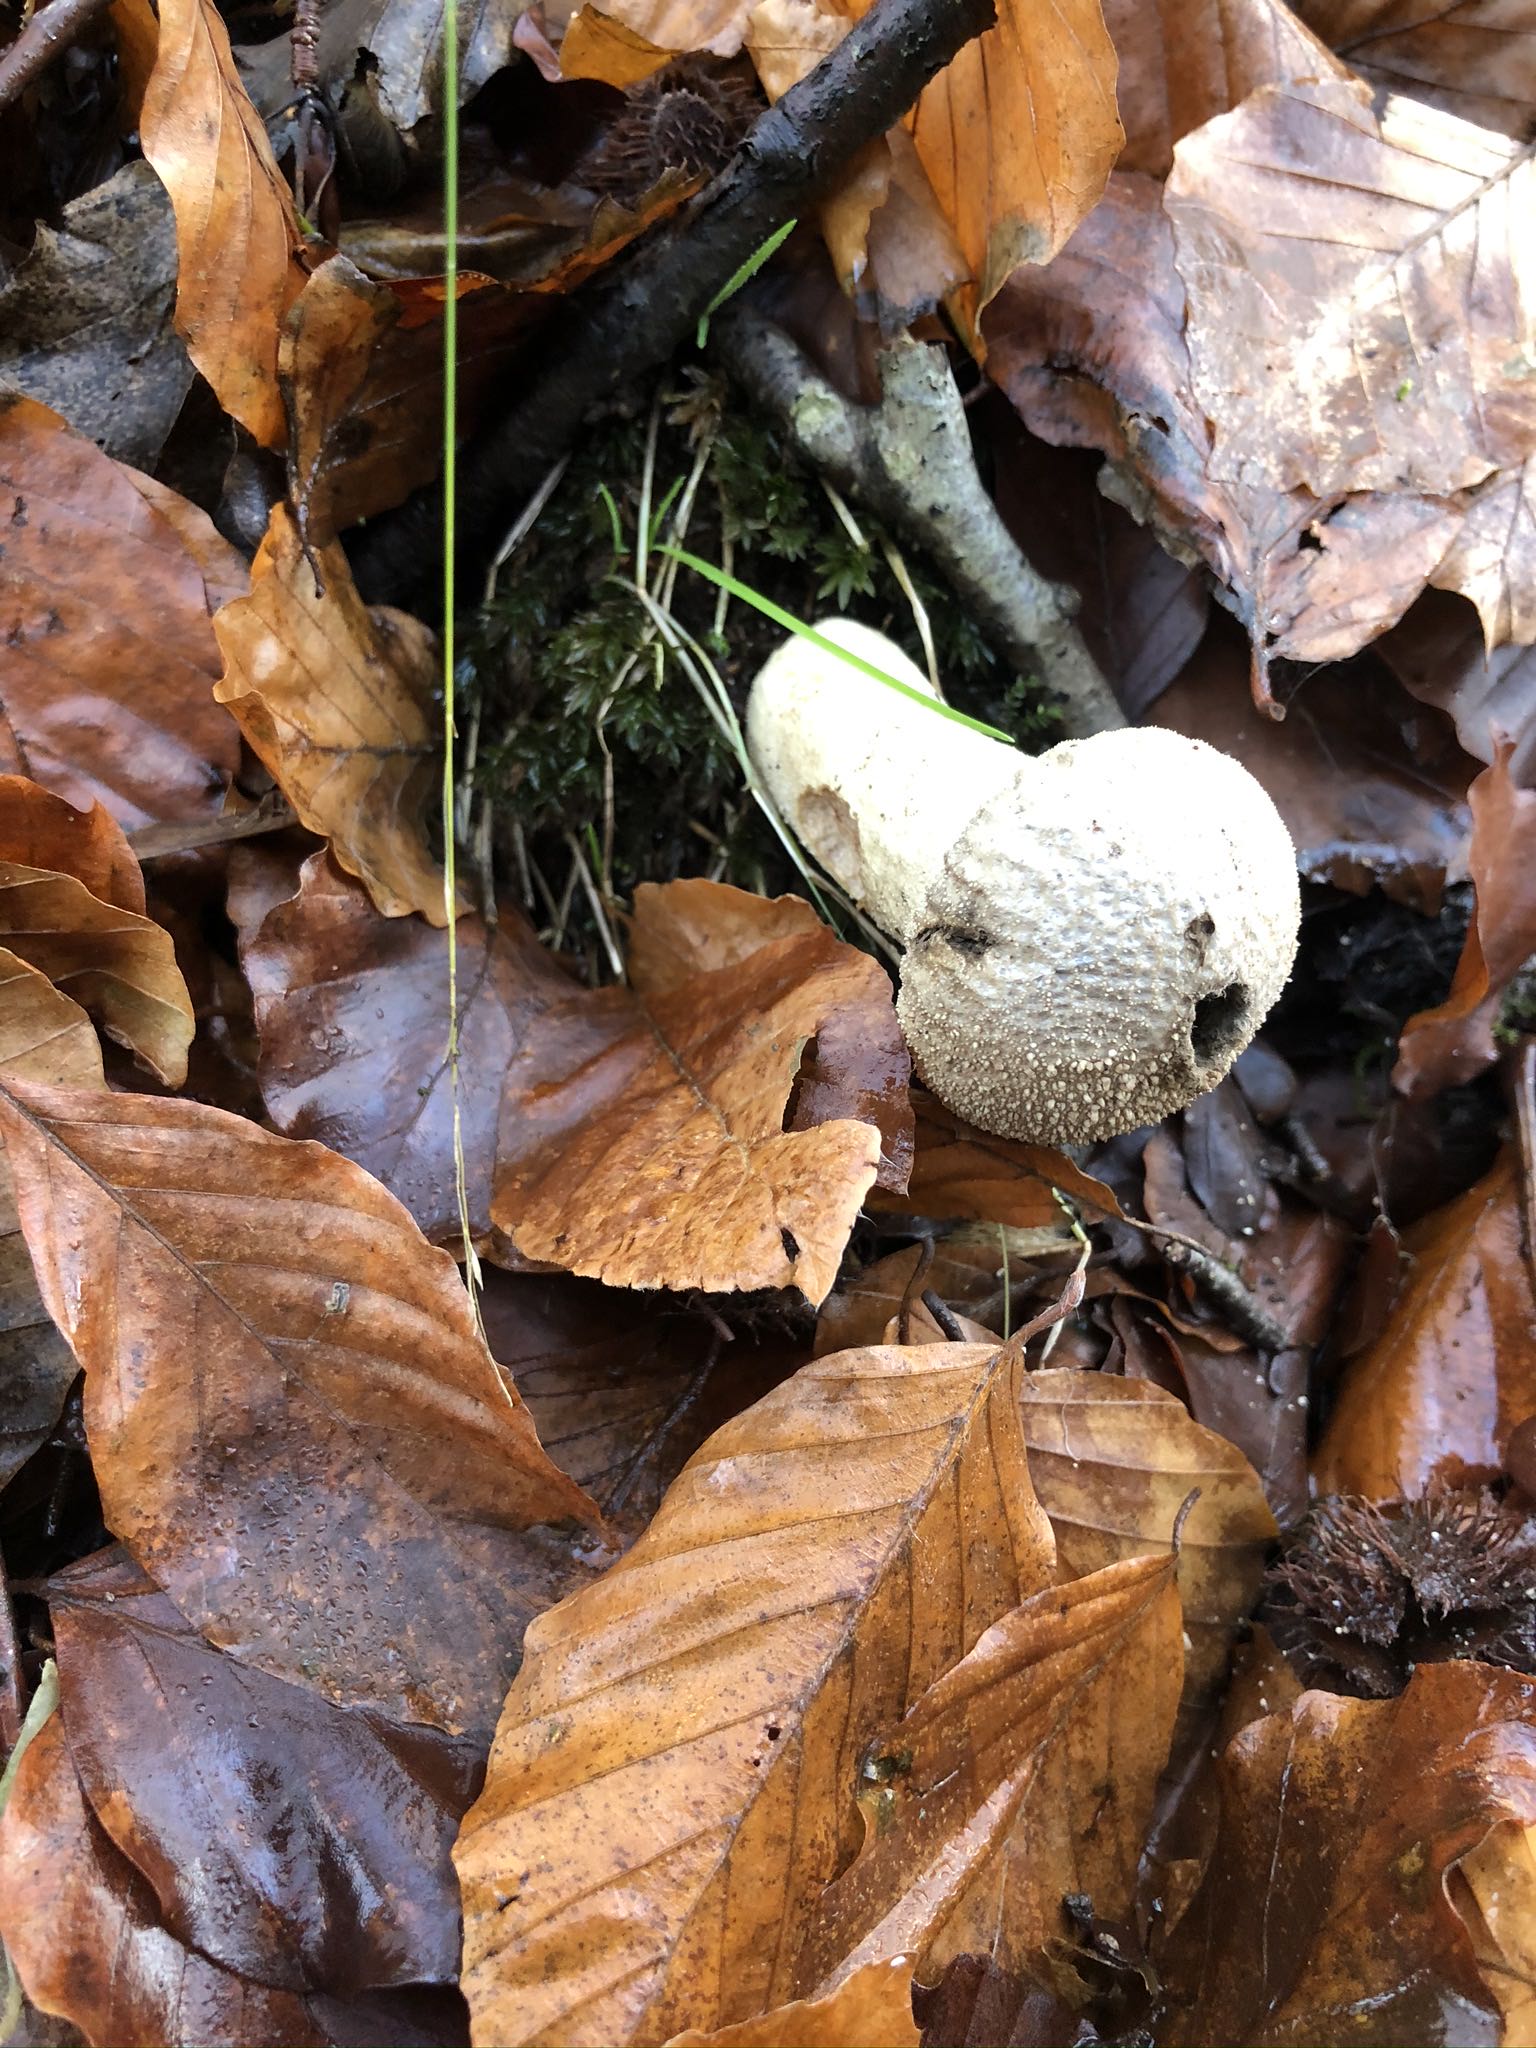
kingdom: Fungi
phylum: Basidiomycota
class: Agaricomycetes
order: Agaricales
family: Lycoperdaceae
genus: Lycoperdon
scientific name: Lycoperdon perlatum
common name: krystal-støvbold
